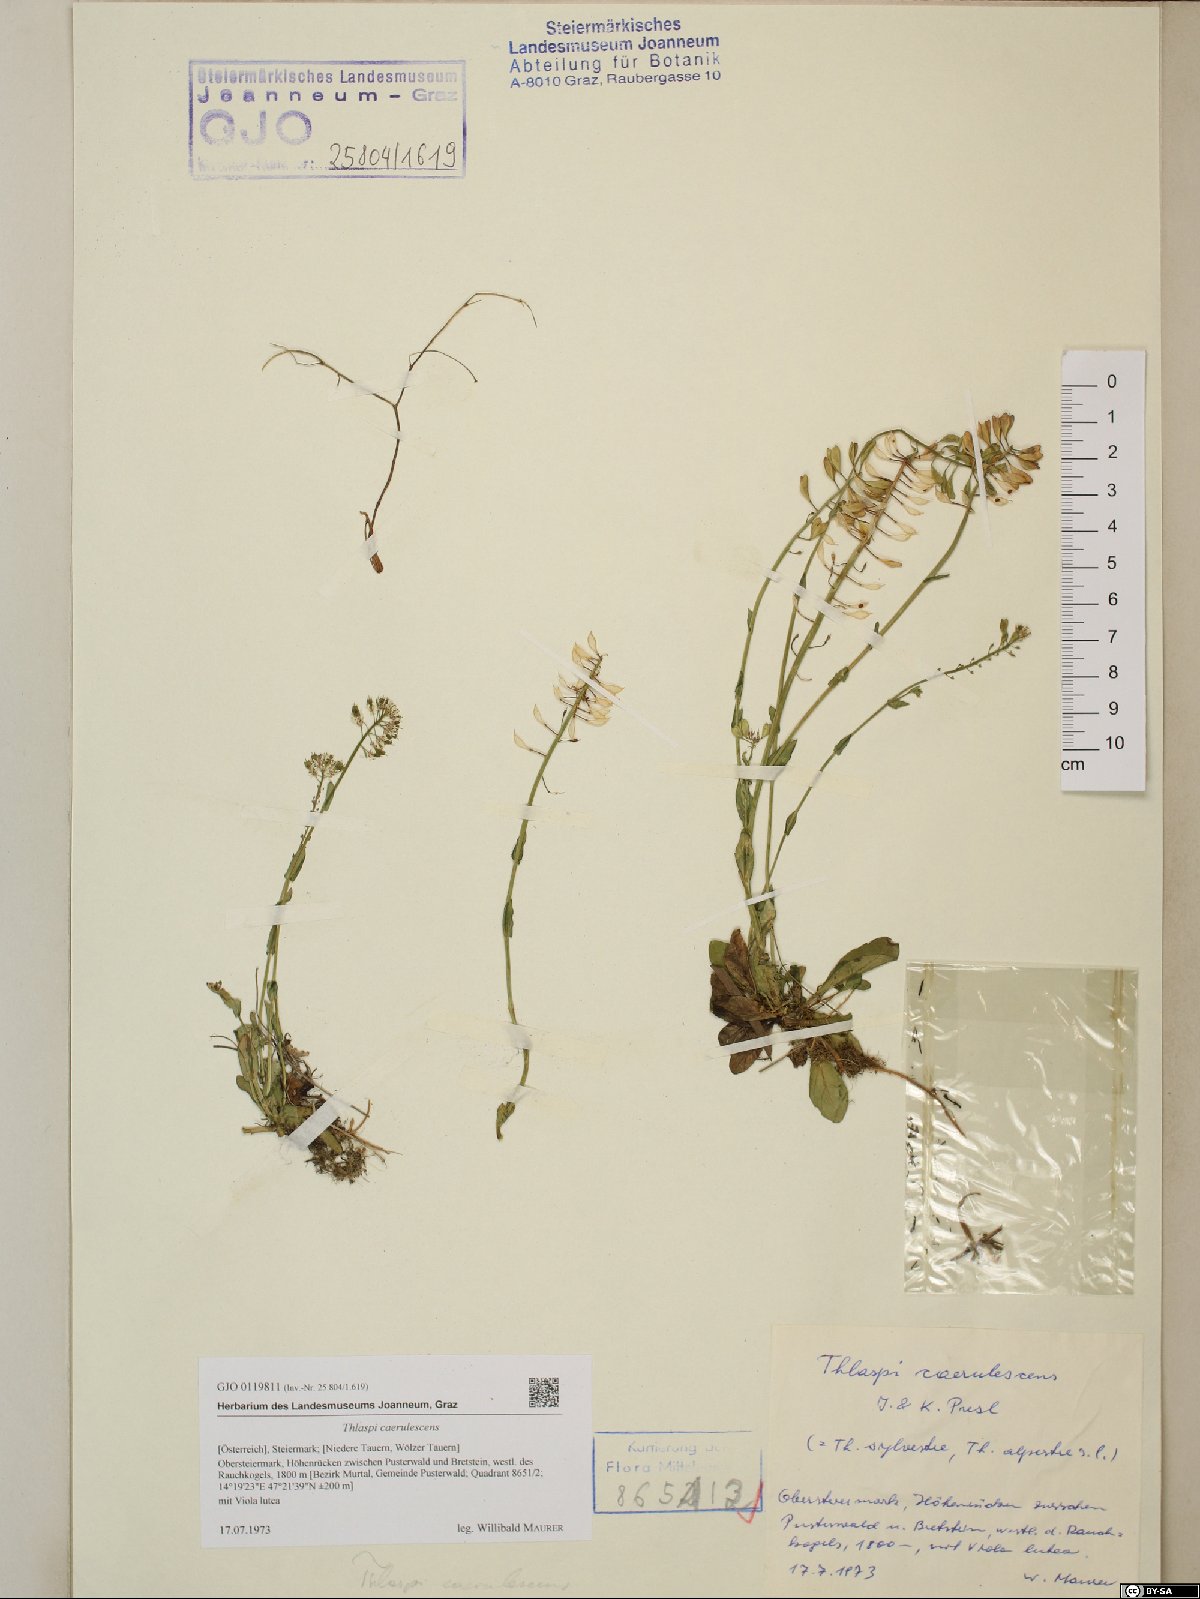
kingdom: Plantae
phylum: Tracheophyta
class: Magnoliopsida
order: Brassicales
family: Brassicaceae
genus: Noccaea
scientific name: Noccaea caerulescens
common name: Alpine pennycress
